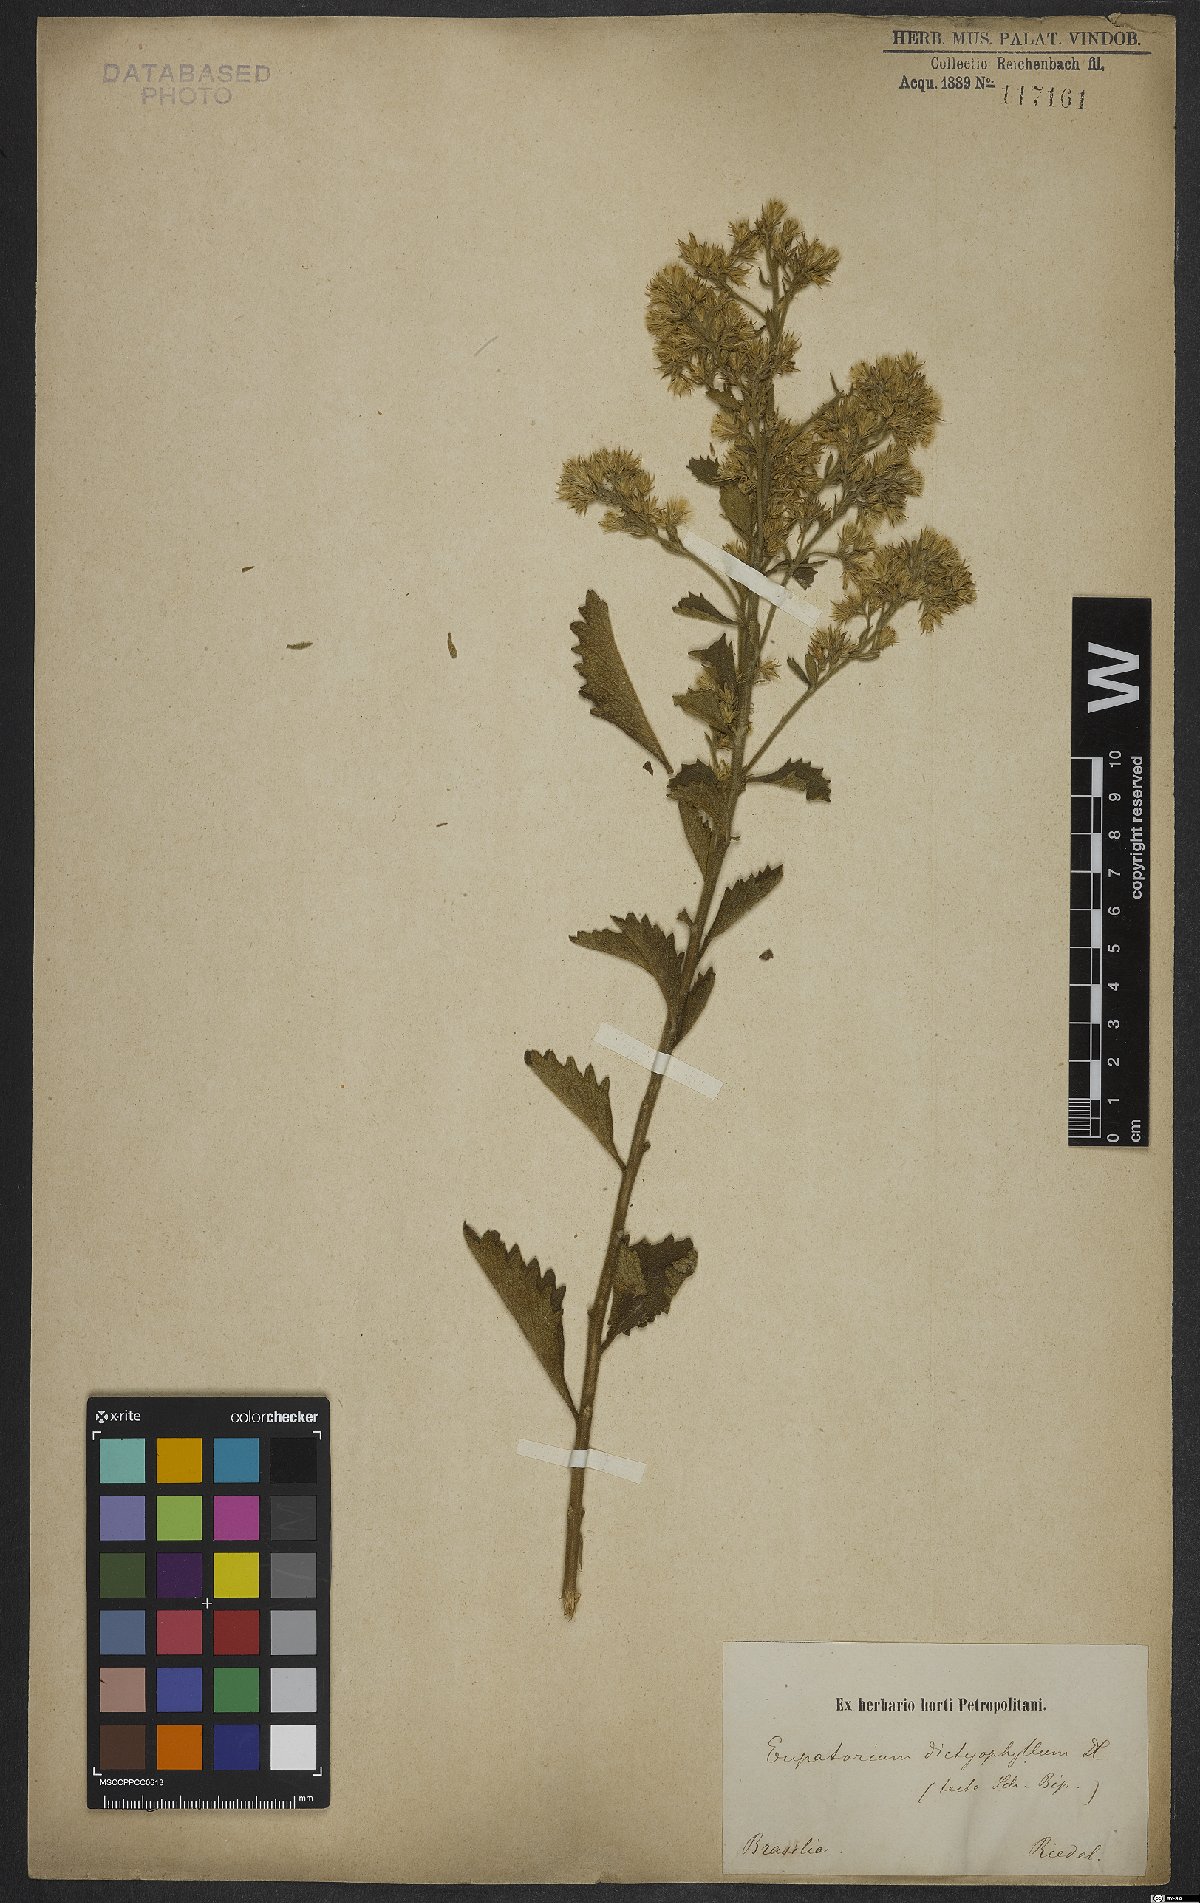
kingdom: Plantae
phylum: Tracheophyta
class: Magnoliopsida
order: Asterales
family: Asteraceae
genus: Stomatanthes
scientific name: Stomatanthes dictyophyllus
